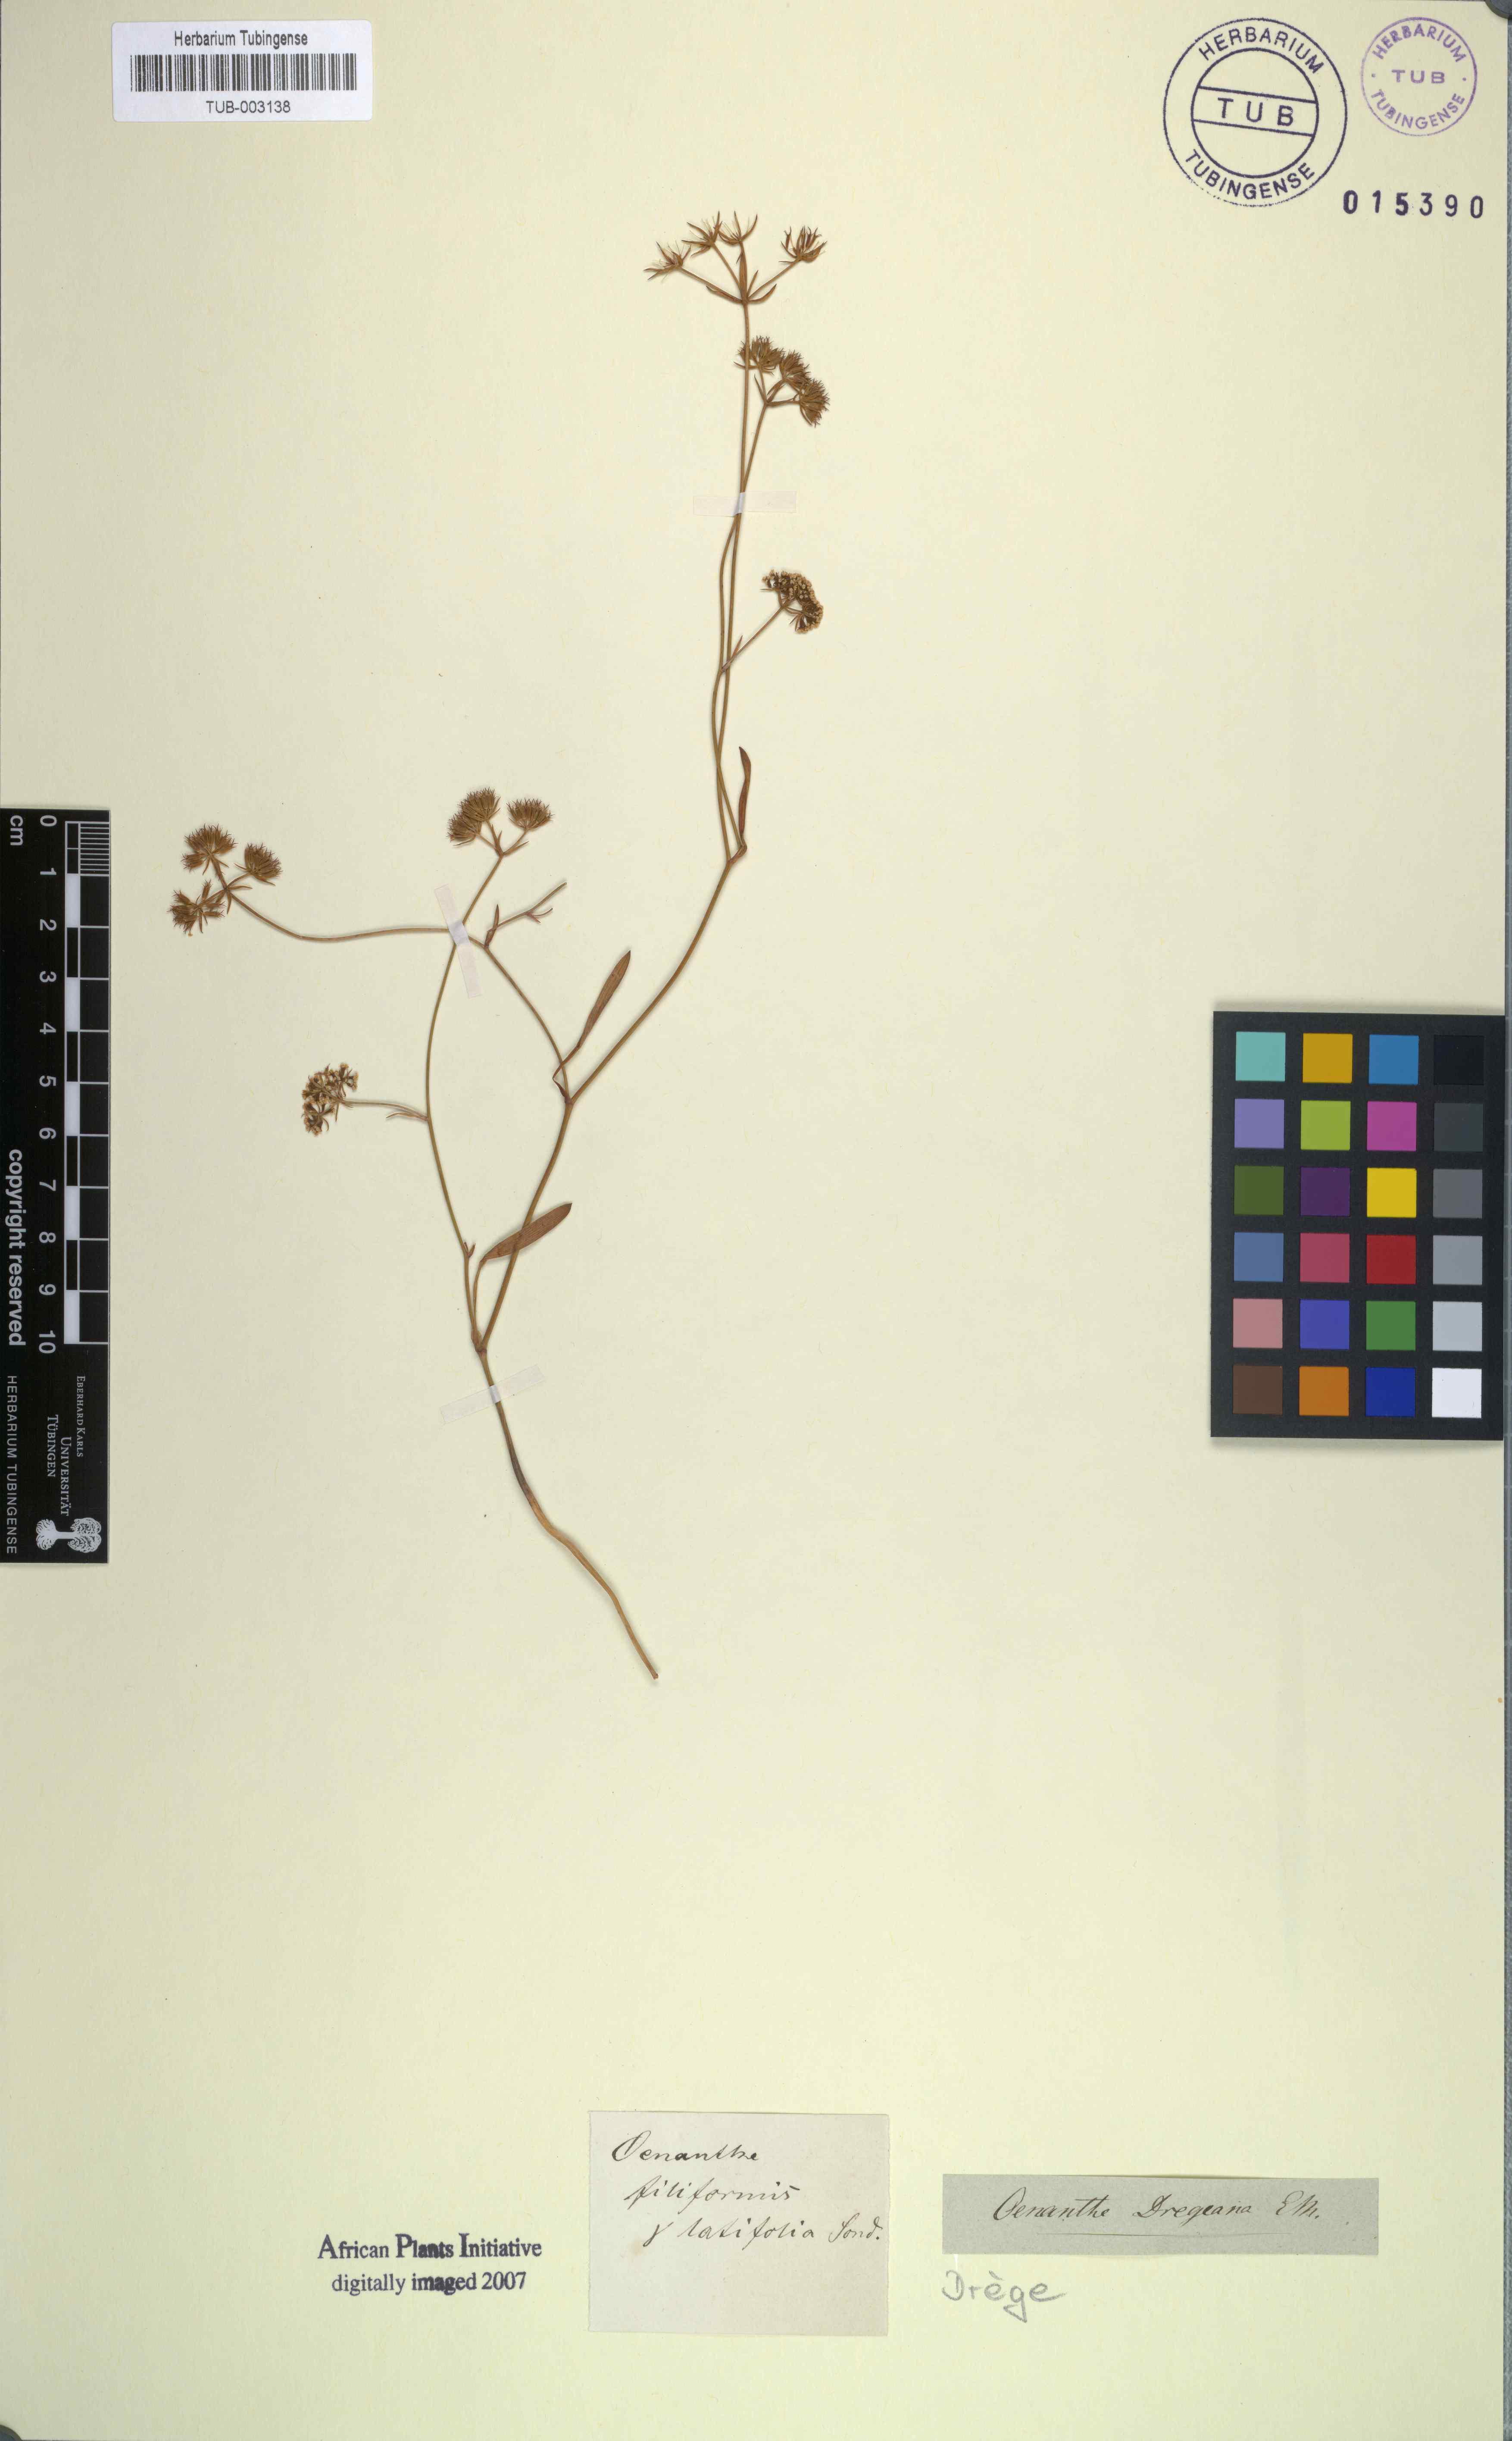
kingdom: Plantae
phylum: Tracheophyta
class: Magnoliopsida
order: Apiales
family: Apiaceae
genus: Itasina
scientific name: Itasina filifolia
